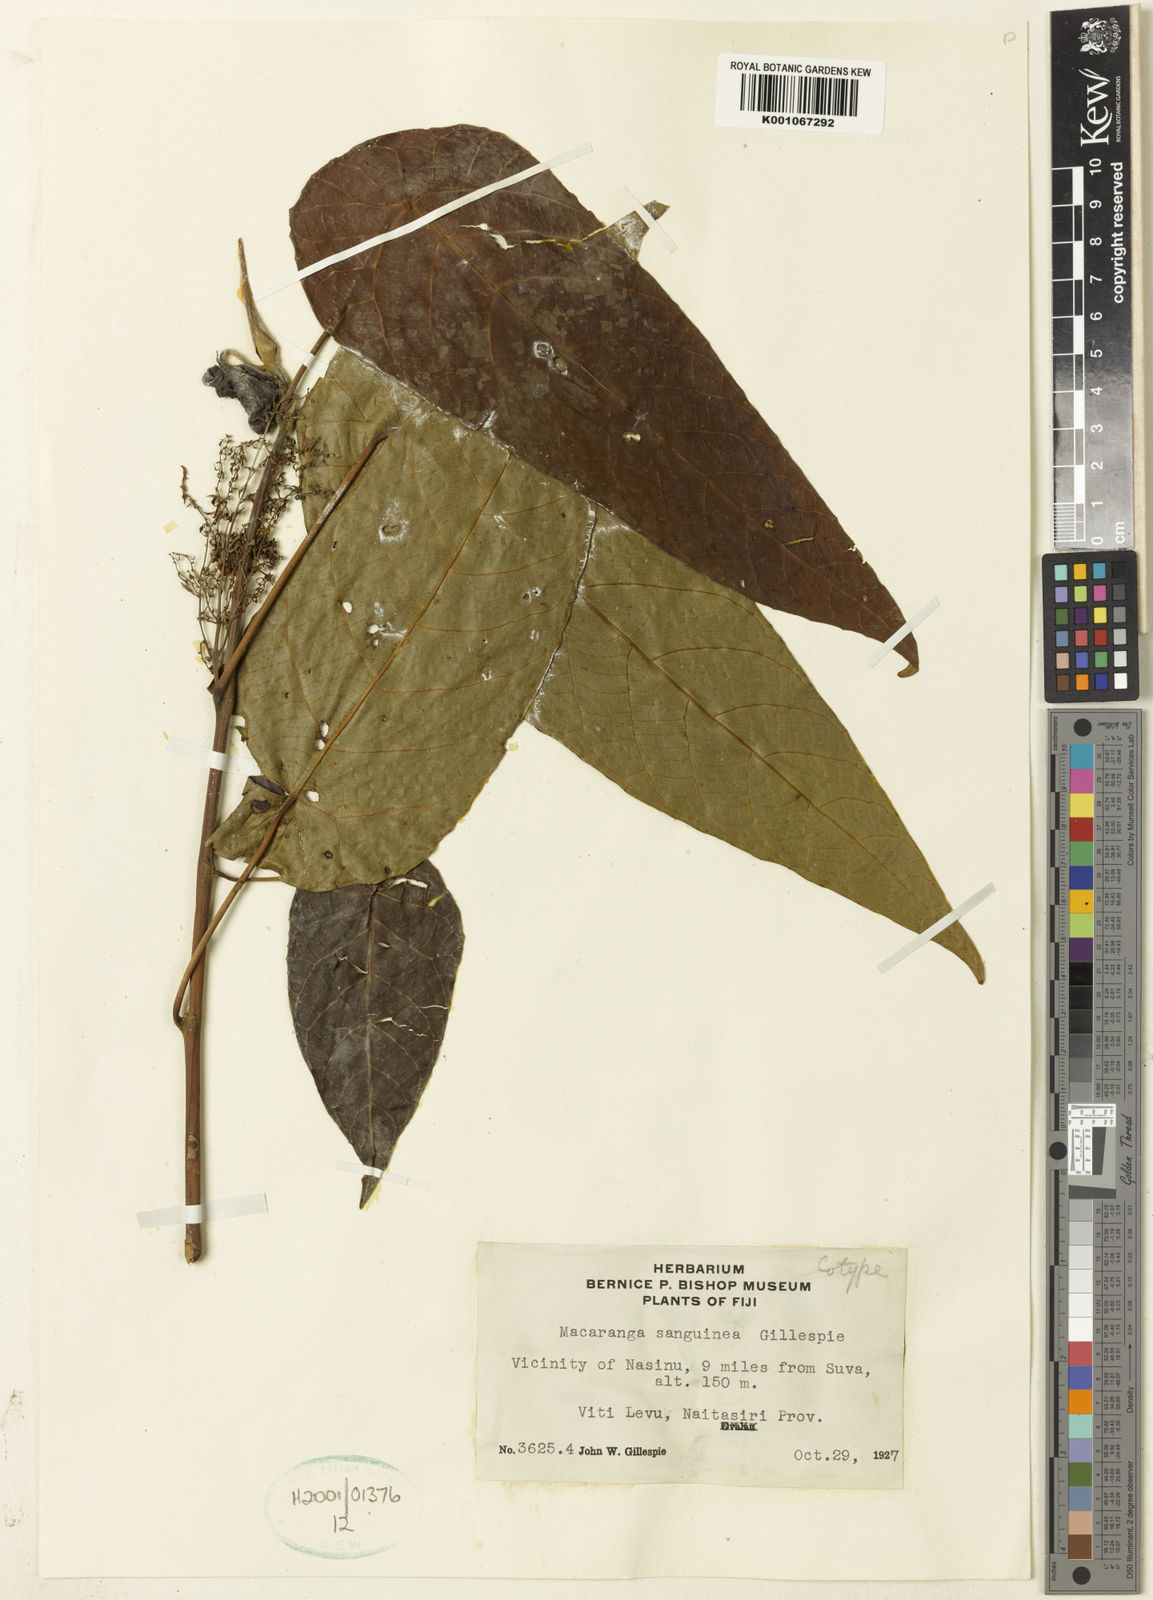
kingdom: Plantae
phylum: Tracheophyta
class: Magnoliopsida
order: Malpighiales
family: Euphorbiaceae
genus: Macaranga
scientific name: Macaranga vitiensis
